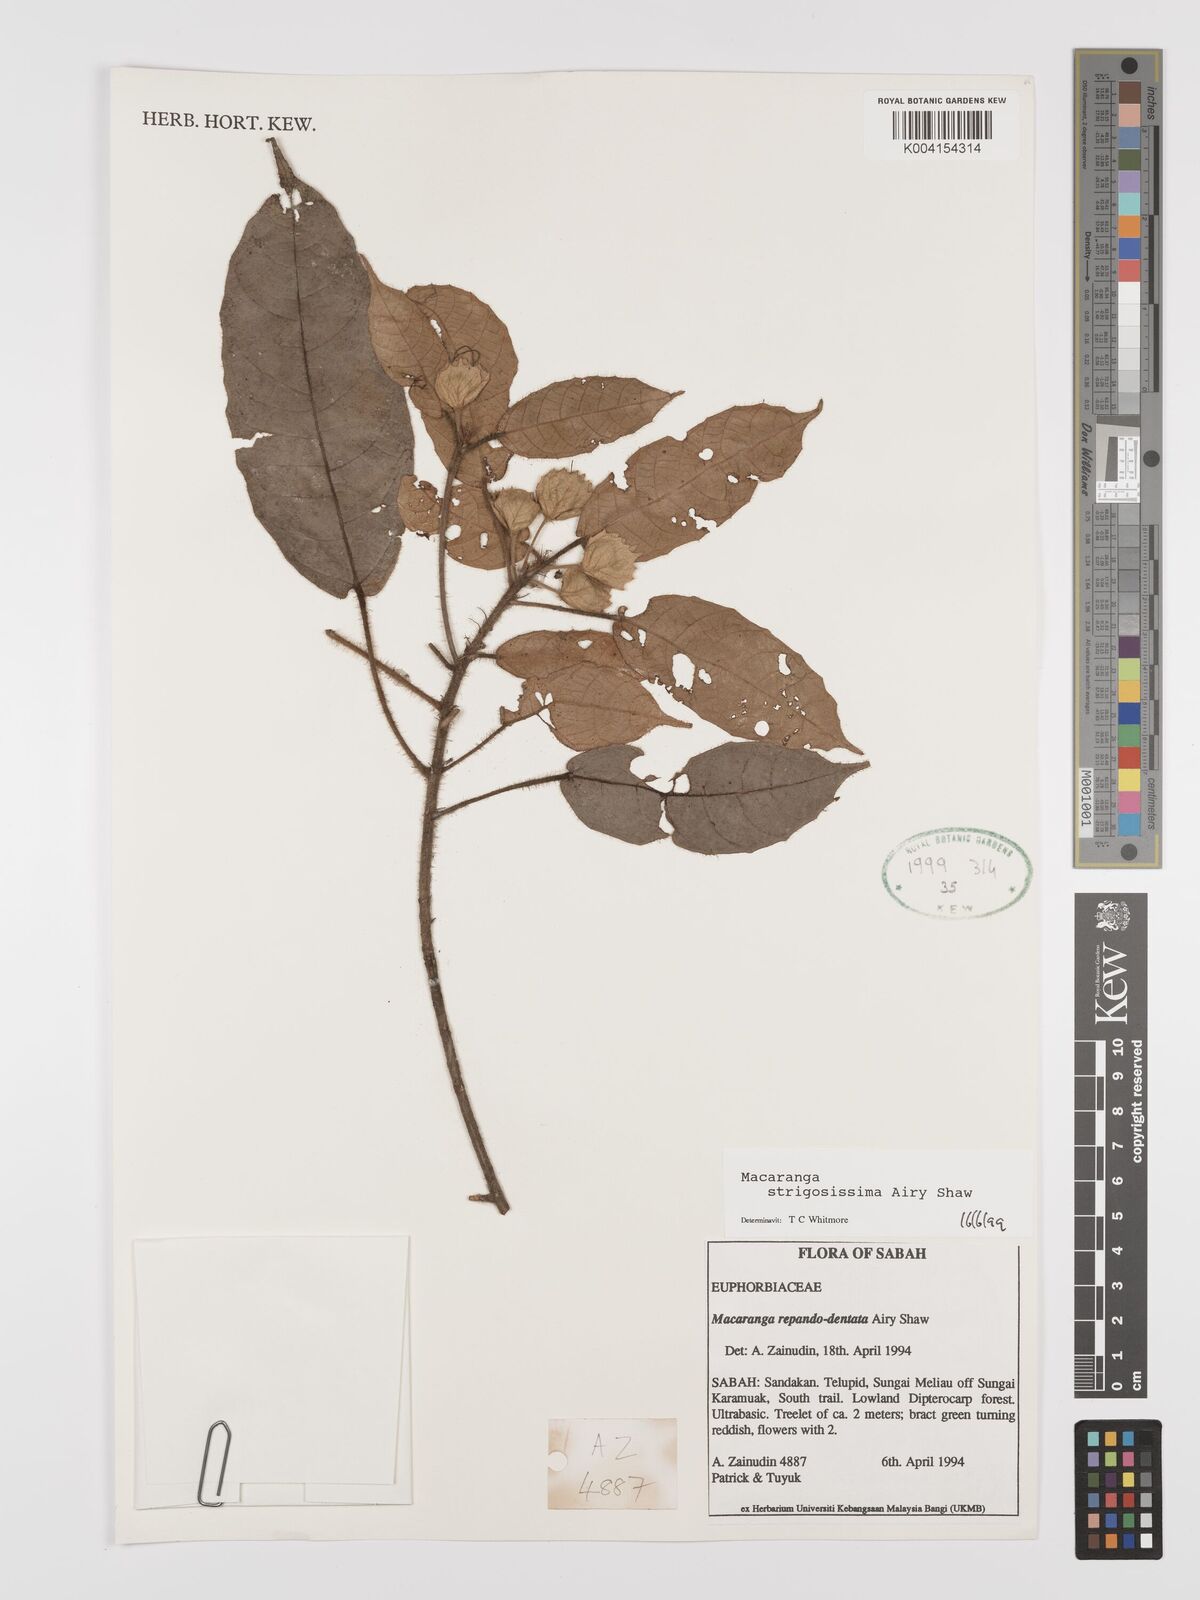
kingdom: Plantae
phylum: Tracheophyta
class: Magnoliopsida
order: Malpighiales
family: Euphorbiaceae
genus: Macaranga
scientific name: Macaranga strigosissima
